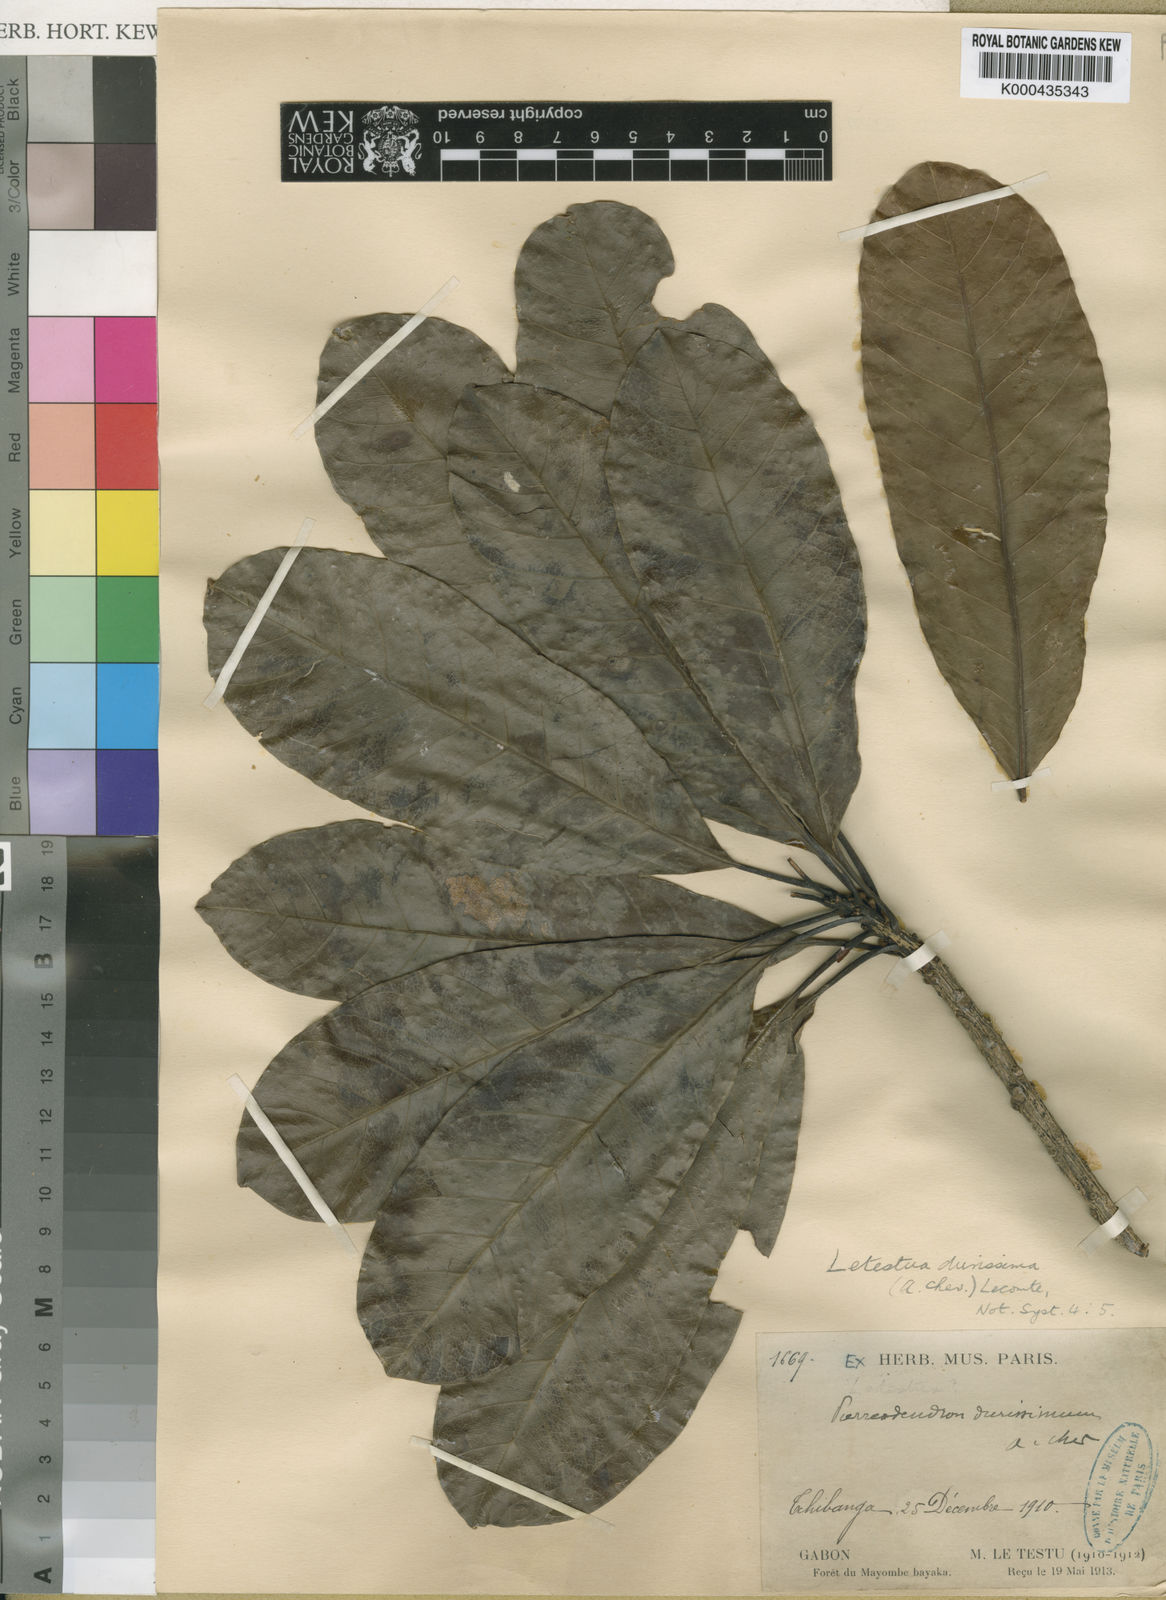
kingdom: Plantae
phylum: Tracheophyta
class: Magnoliopsida
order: Ericales
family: Sapotaceae
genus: Letestua
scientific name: Letestua durissima
